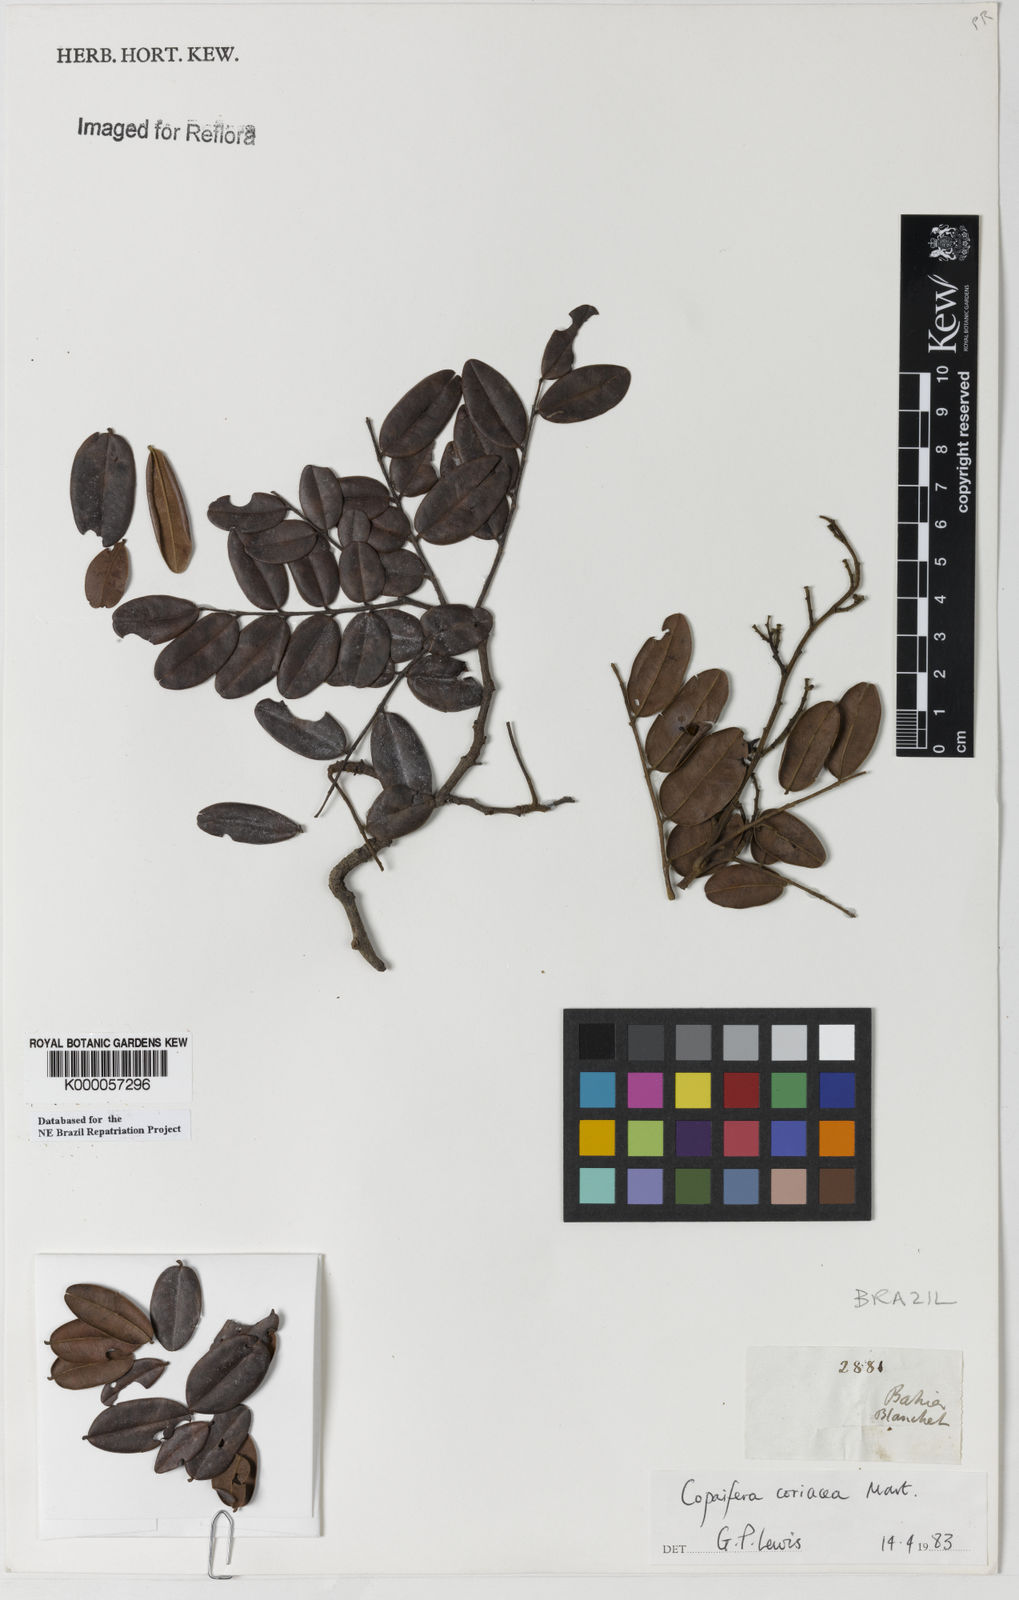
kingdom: Plantae
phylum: Tracheophyta
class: Magnoliopsida
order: Fabales
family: Fabaceae
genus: Copaifera
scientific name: Copaifera coriacea
